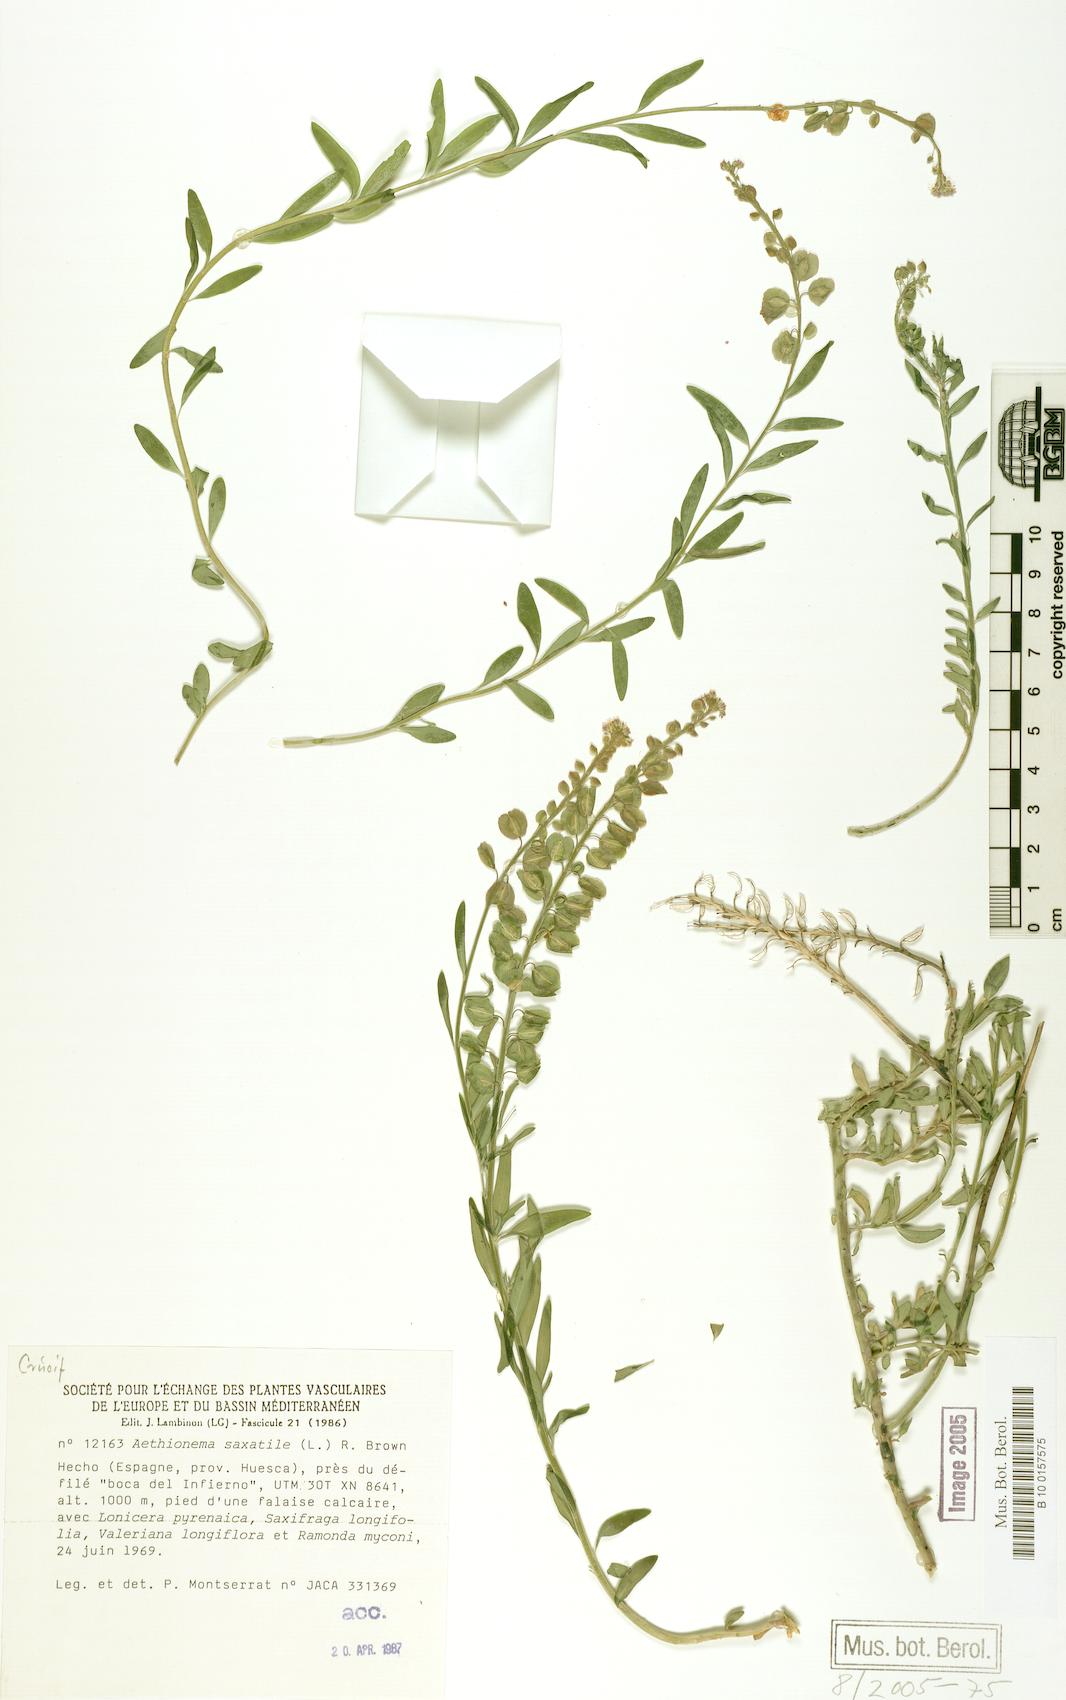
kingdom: Plantae
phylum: Tracheophyta
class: Magnoliopsida
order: Brassicales
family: Brassicaceae
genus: Aethionema
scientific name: Aethionema saxatile
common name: Burnt candytuft
